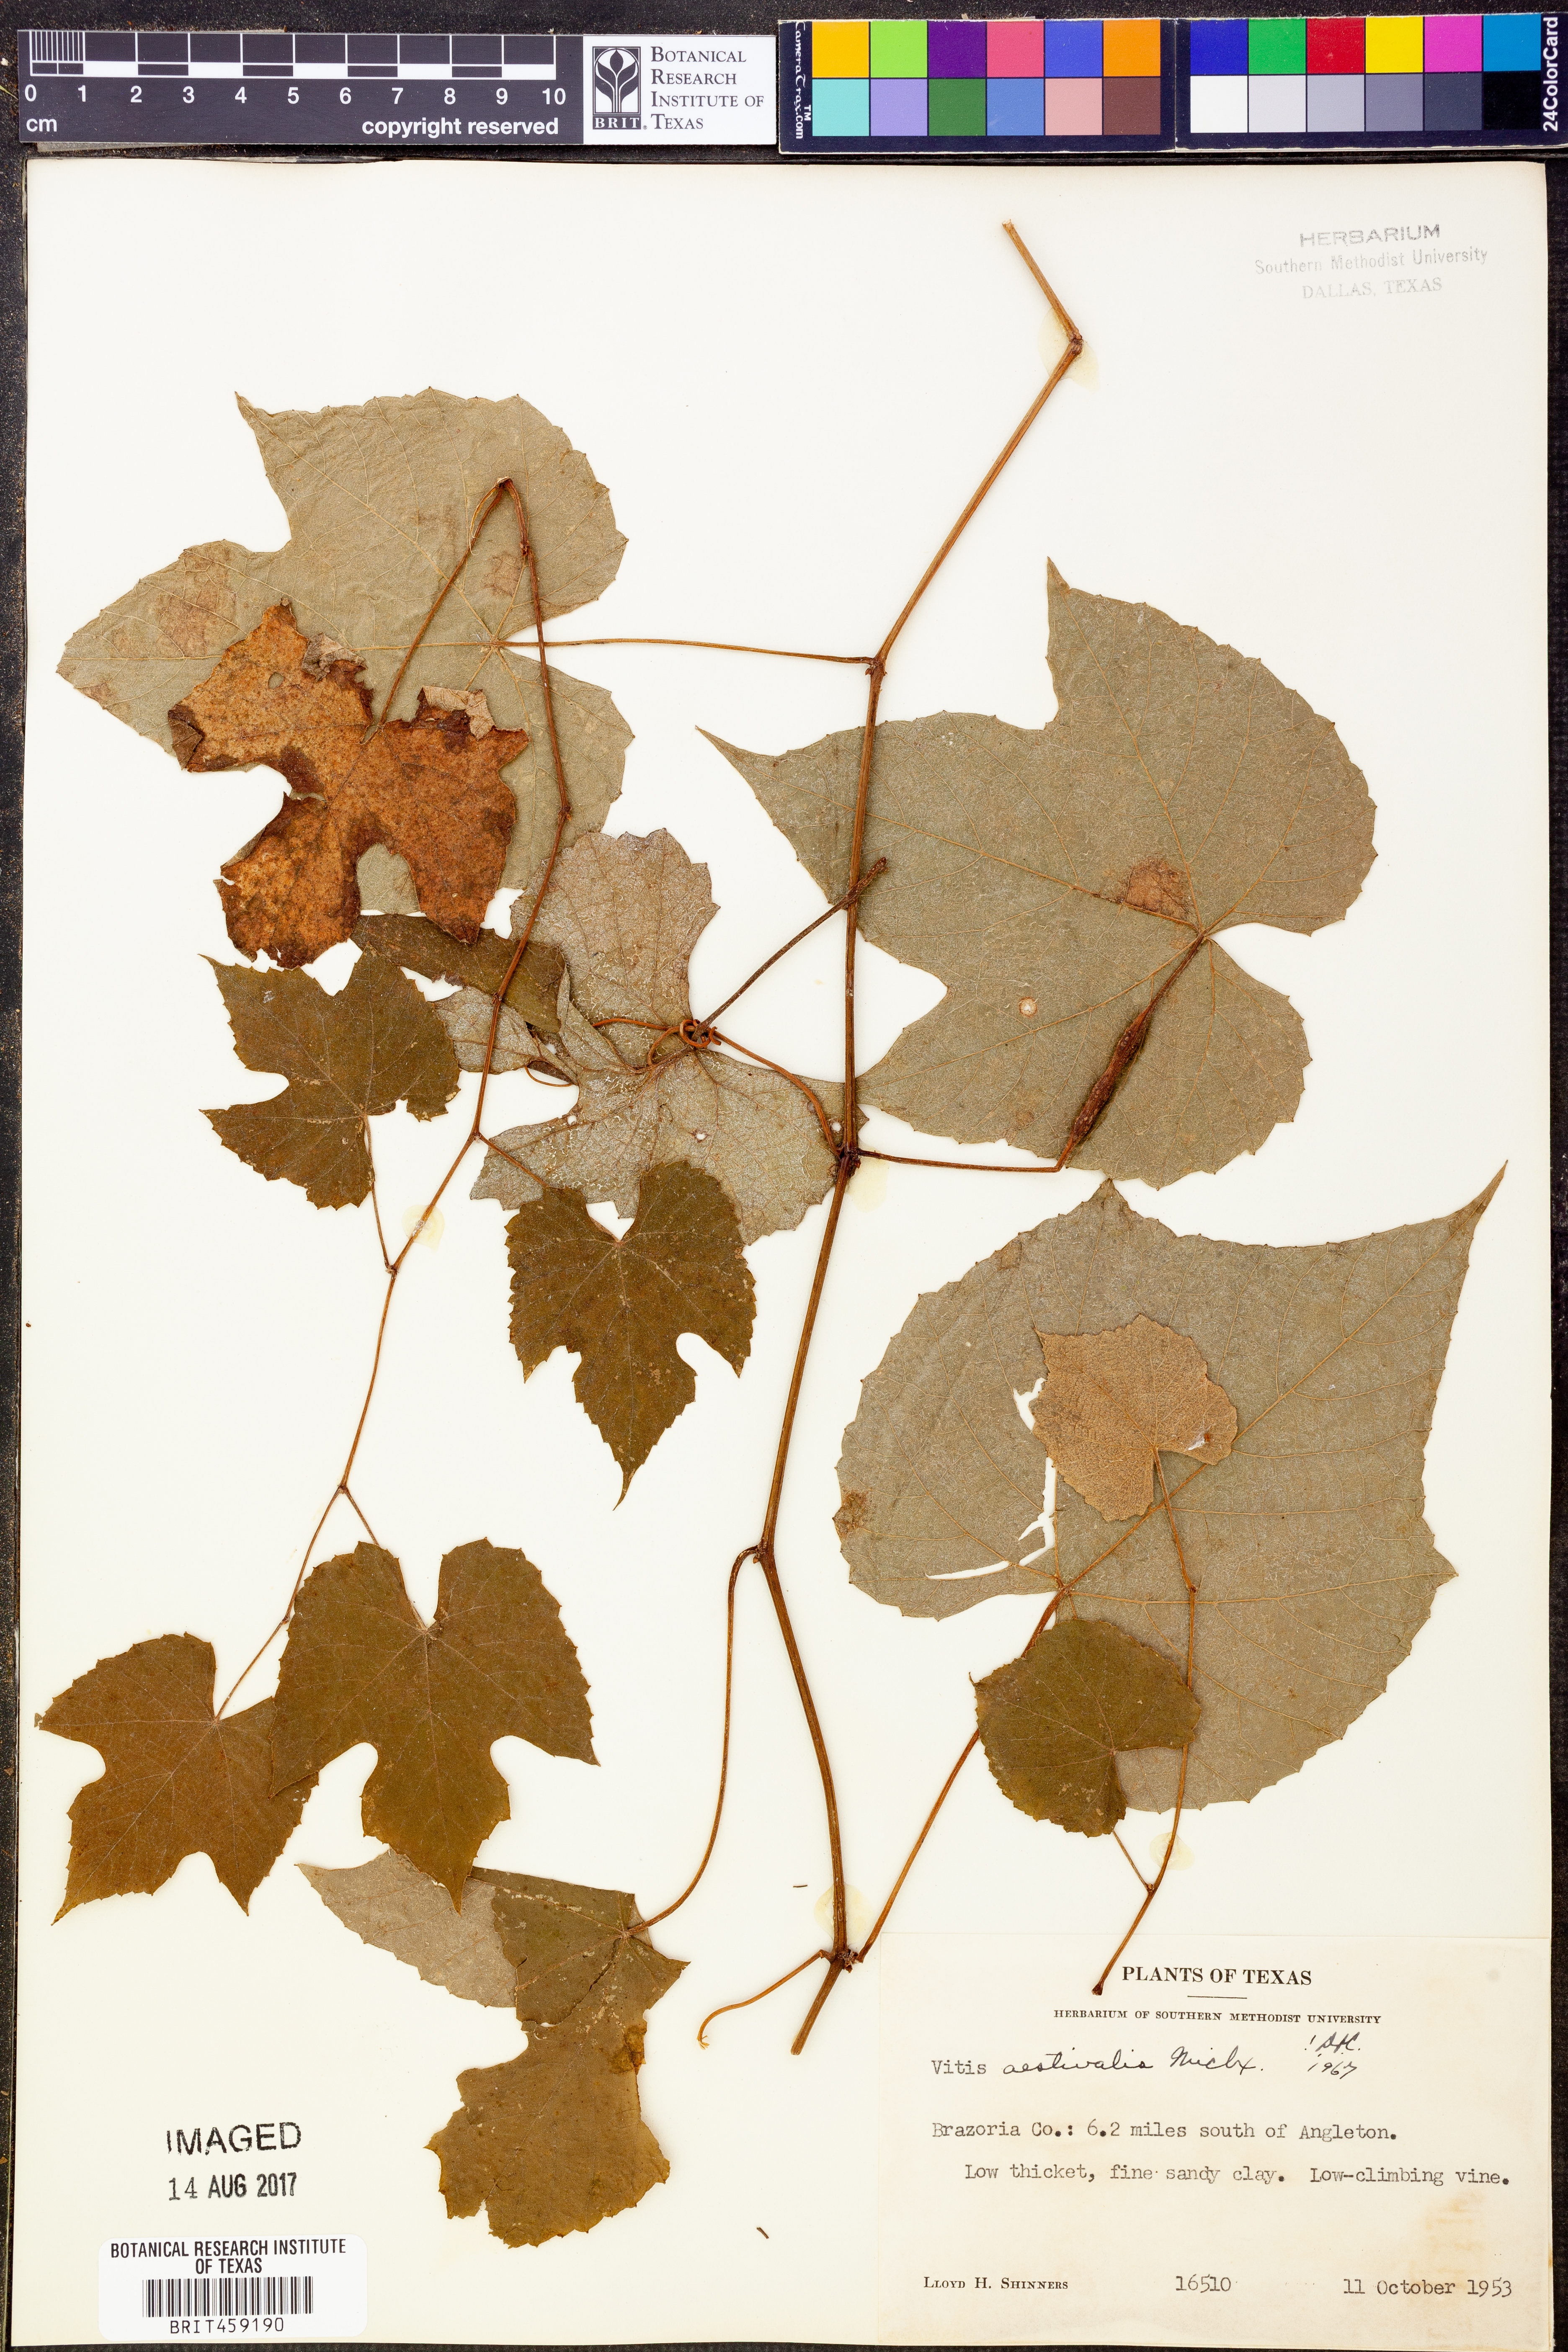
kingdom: Plantae
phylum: Tracheophyta
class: Magnoliopsida
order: Vitales
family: Vitaceae
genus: Vitis
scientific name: Vitis aestivalis
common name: Pigeon grape
